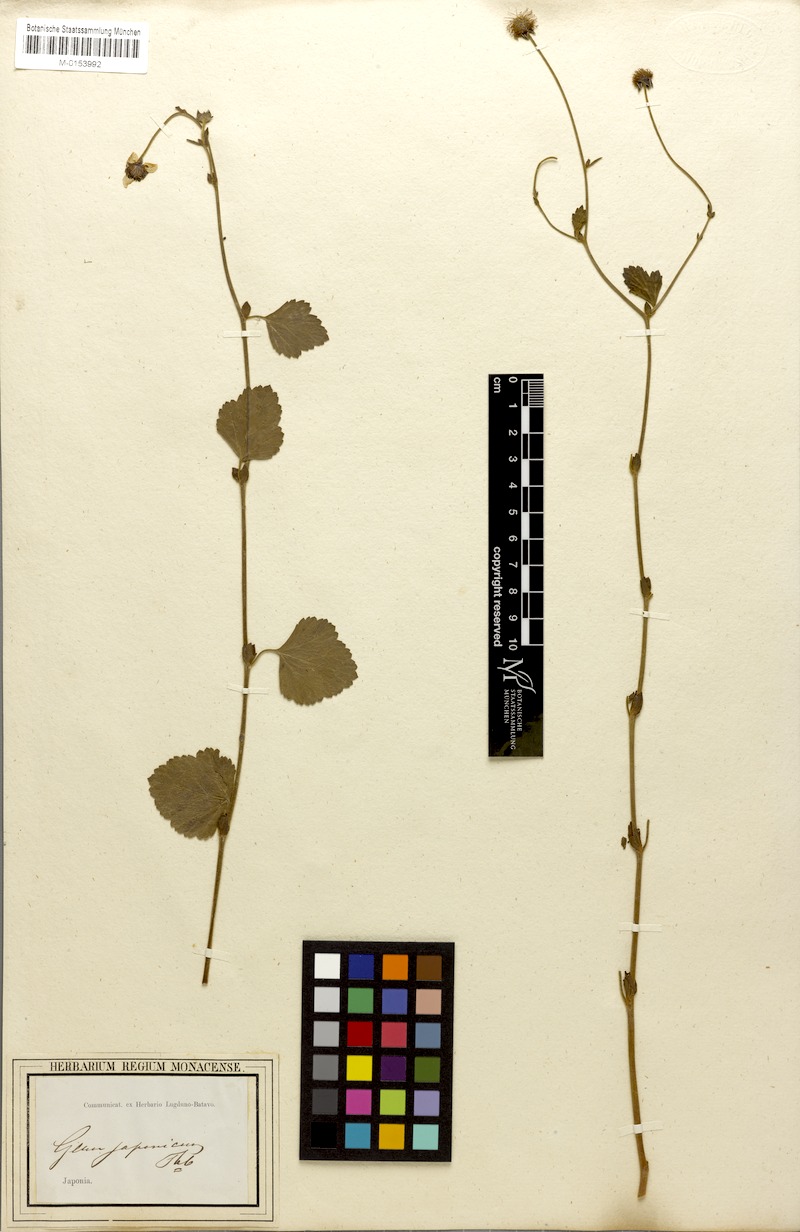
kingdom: Plantae
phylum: Tracheophyta
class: Magnoliopsida
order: Rosales
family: Rosaceae
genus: Geum
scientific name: Geum japonicum
